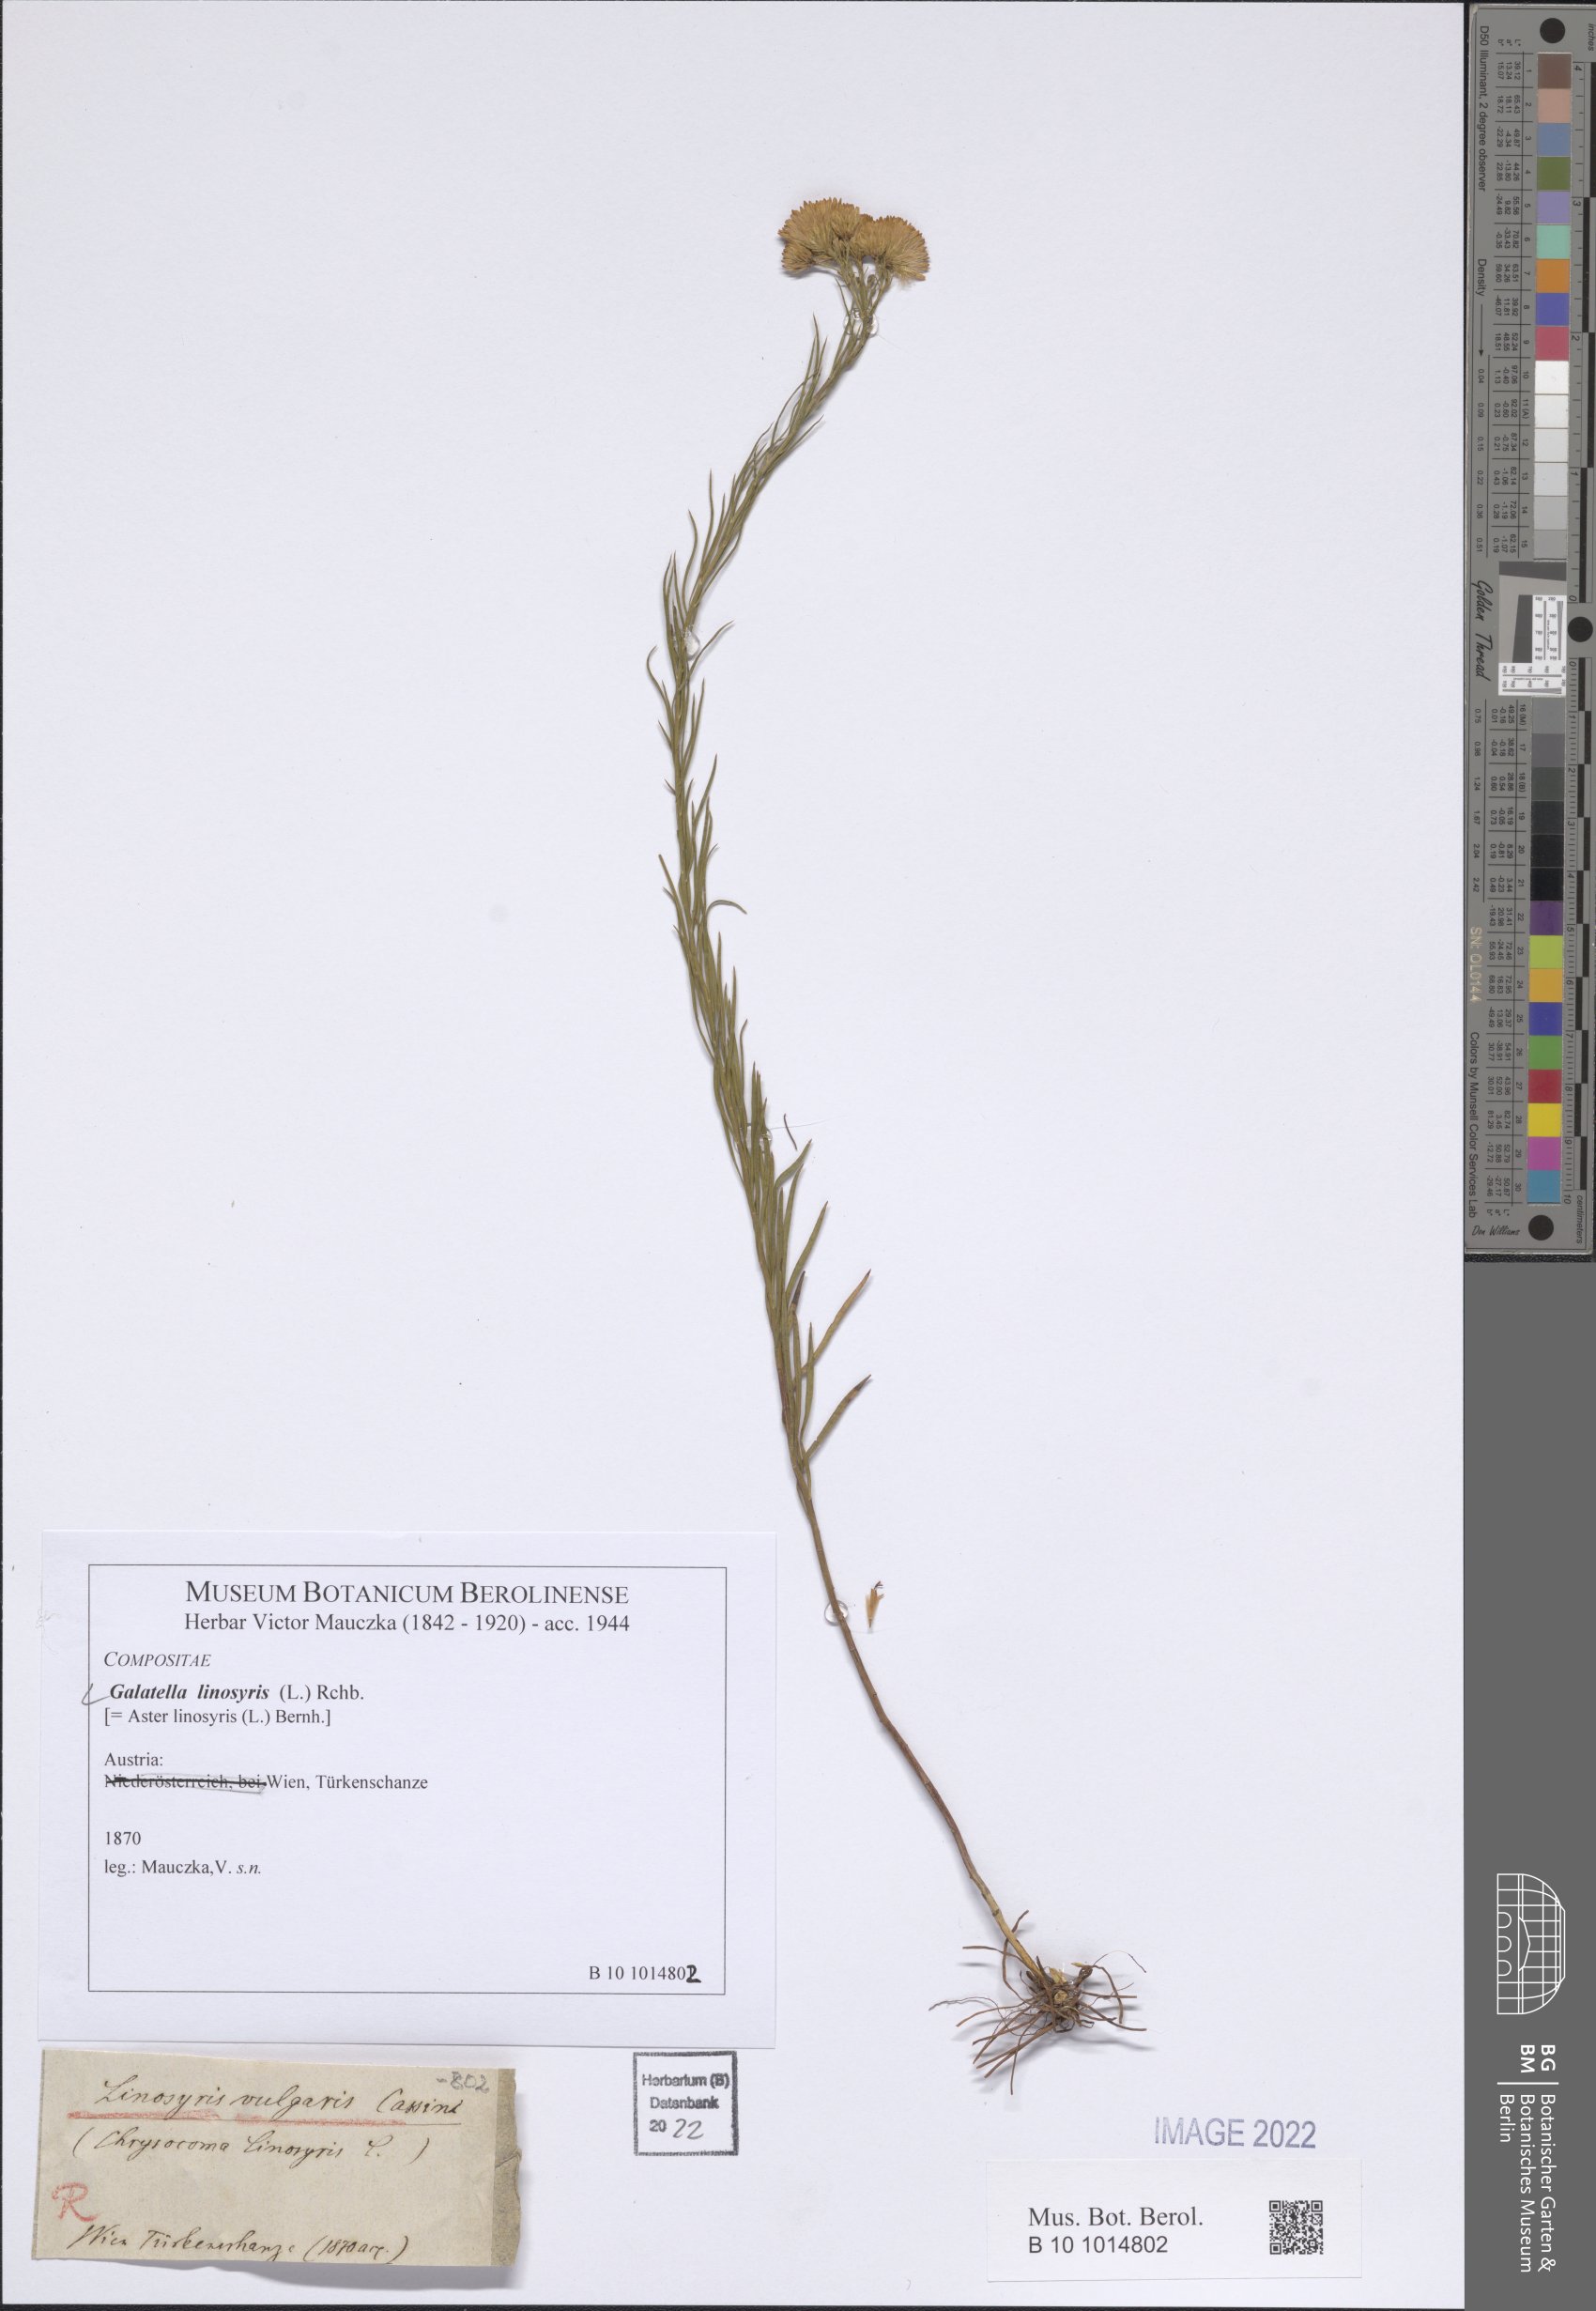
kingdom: Plantae
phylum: Tracheophyta
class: Magnoliopsida
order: Asterales
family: Asteraceae
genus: Galatella
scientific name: Galatella linosyris
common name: Goldilocks aster
